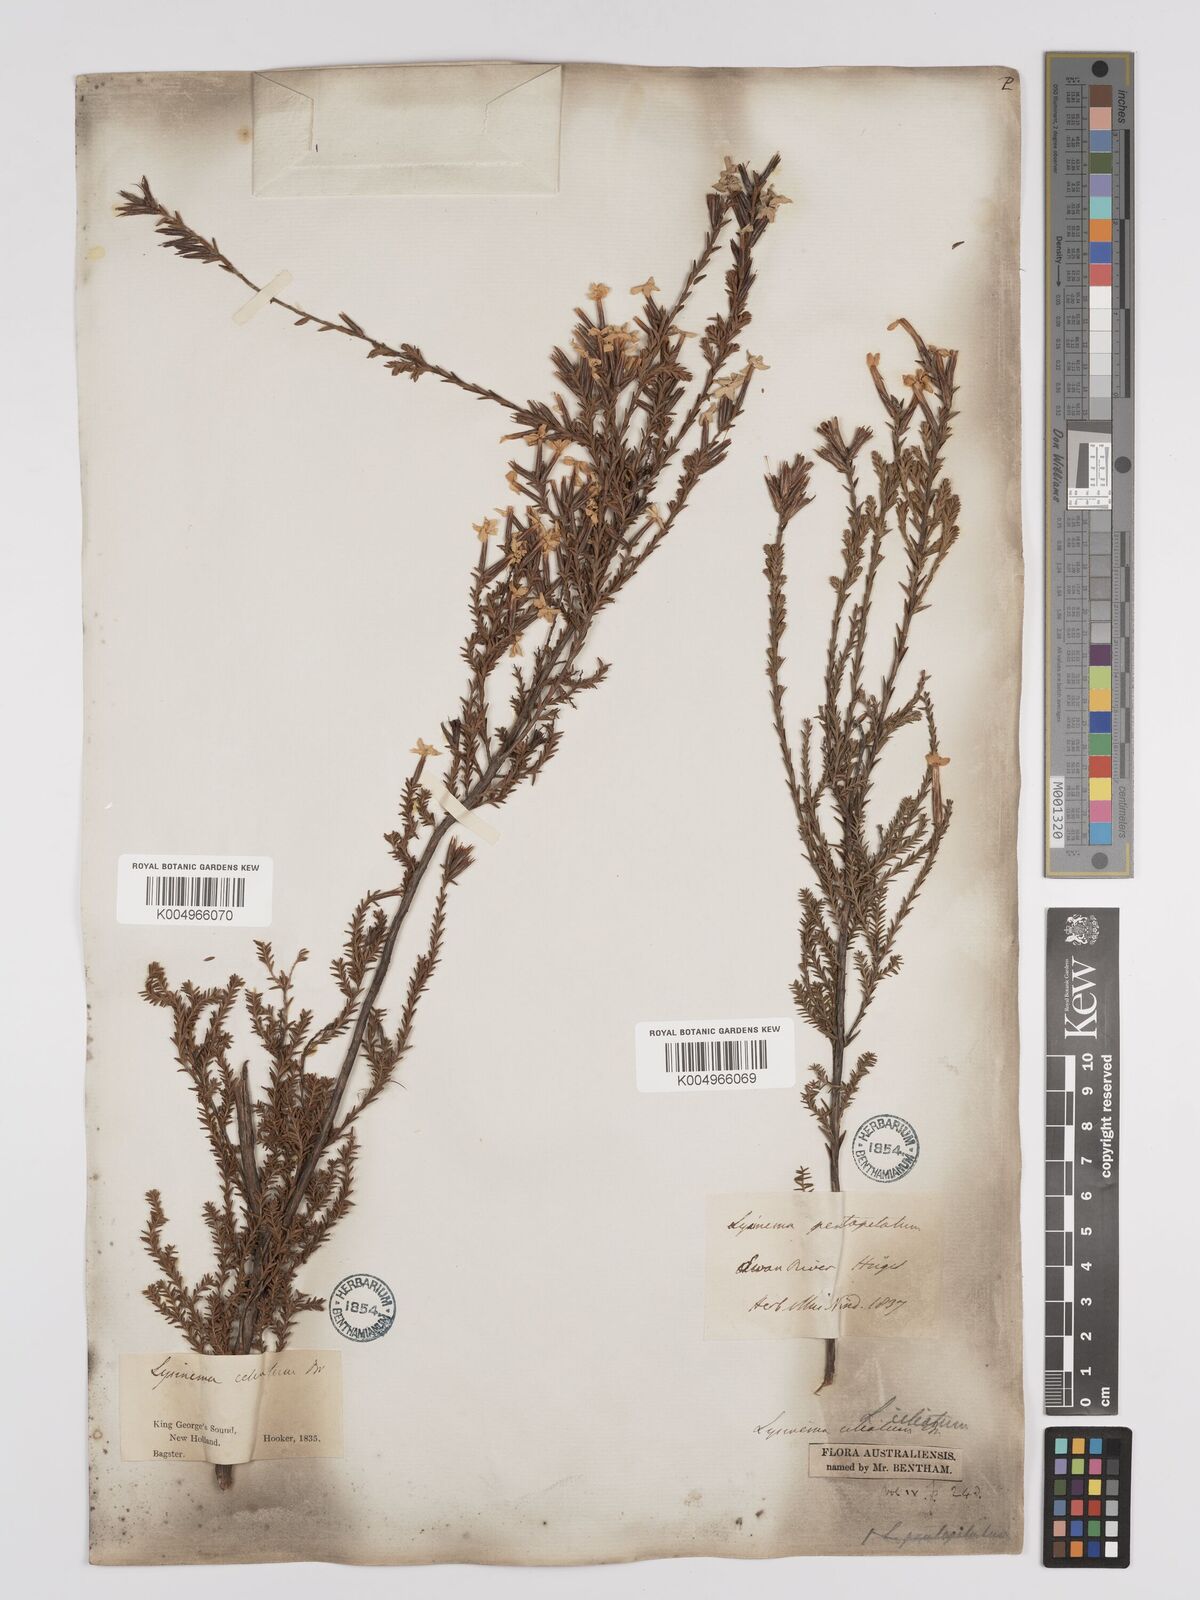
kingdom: Plantae
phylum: Tracheophyta
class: Magnoliopsida
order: Ericales
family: Ericaceae
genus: Lysinema
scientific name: Lysinema ciliatum
